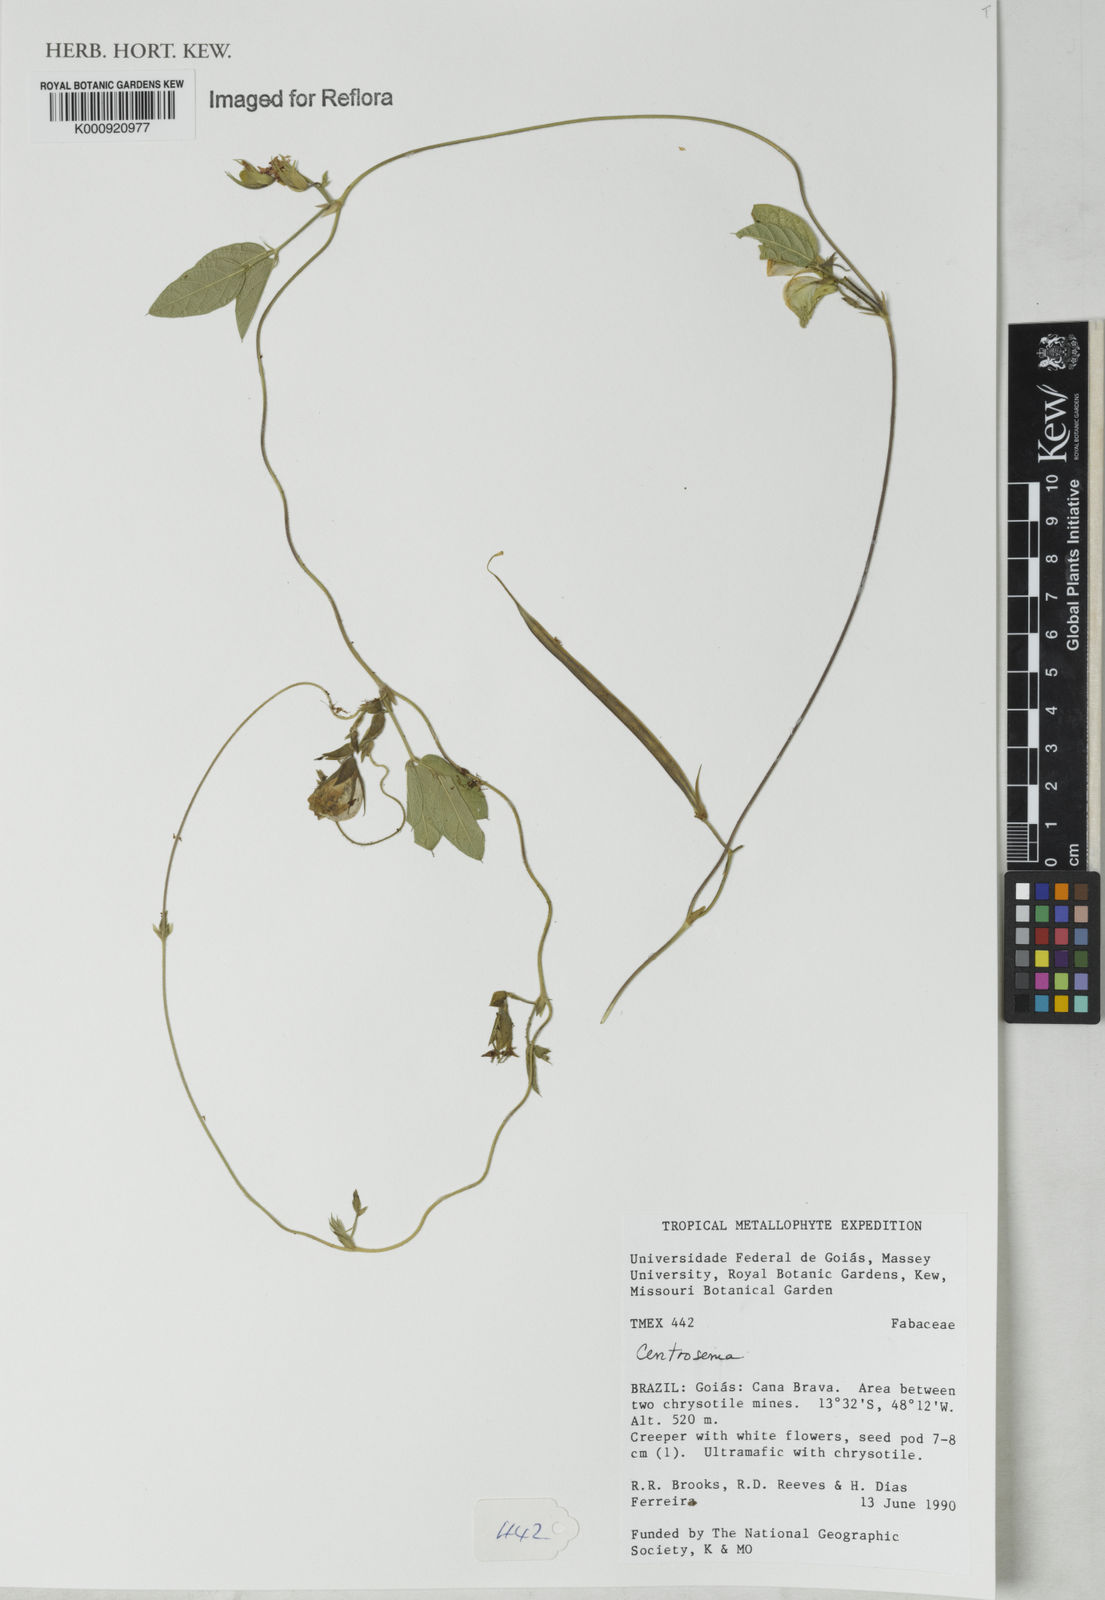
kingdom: Plantae
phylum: Tracheophyta
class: Magnoliopsida
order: Fabales
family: Fabaceae
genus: Centrosema
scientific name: Centrosema
